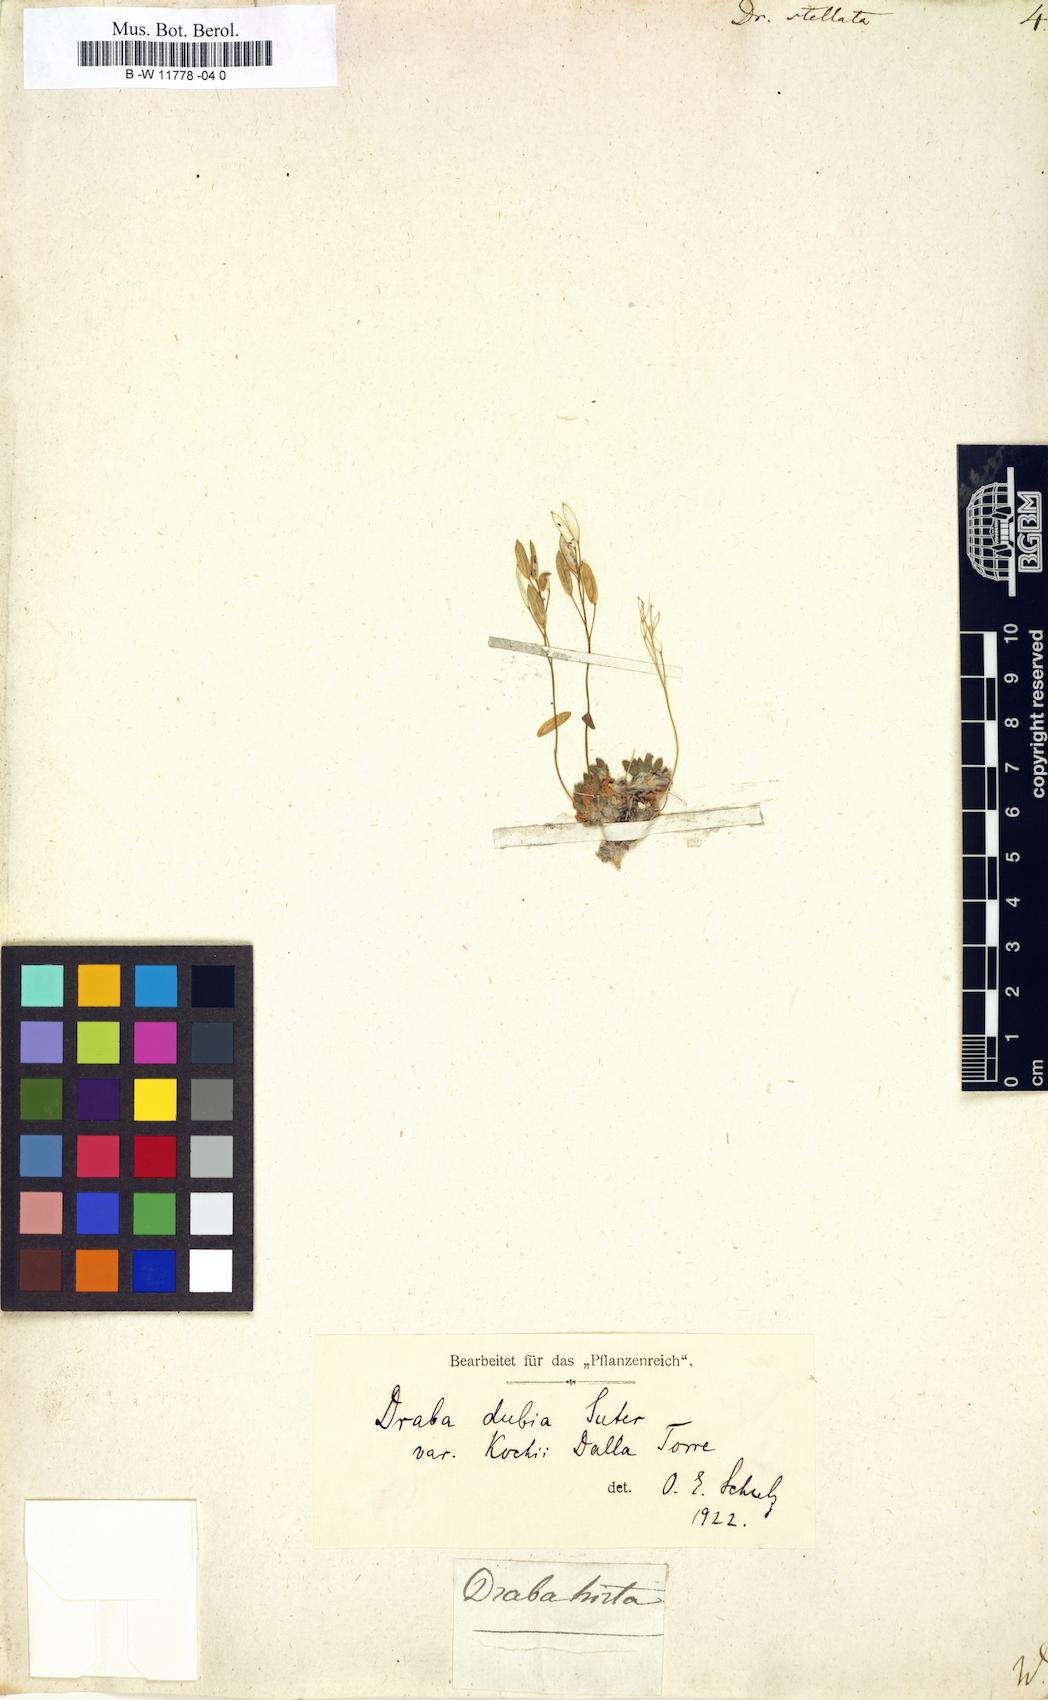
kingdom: Plantae
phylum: Tracheophyta
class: Magnoliopsida
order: Brassicales
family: Brassicaceae
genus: Draba
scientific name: Draba stellata
